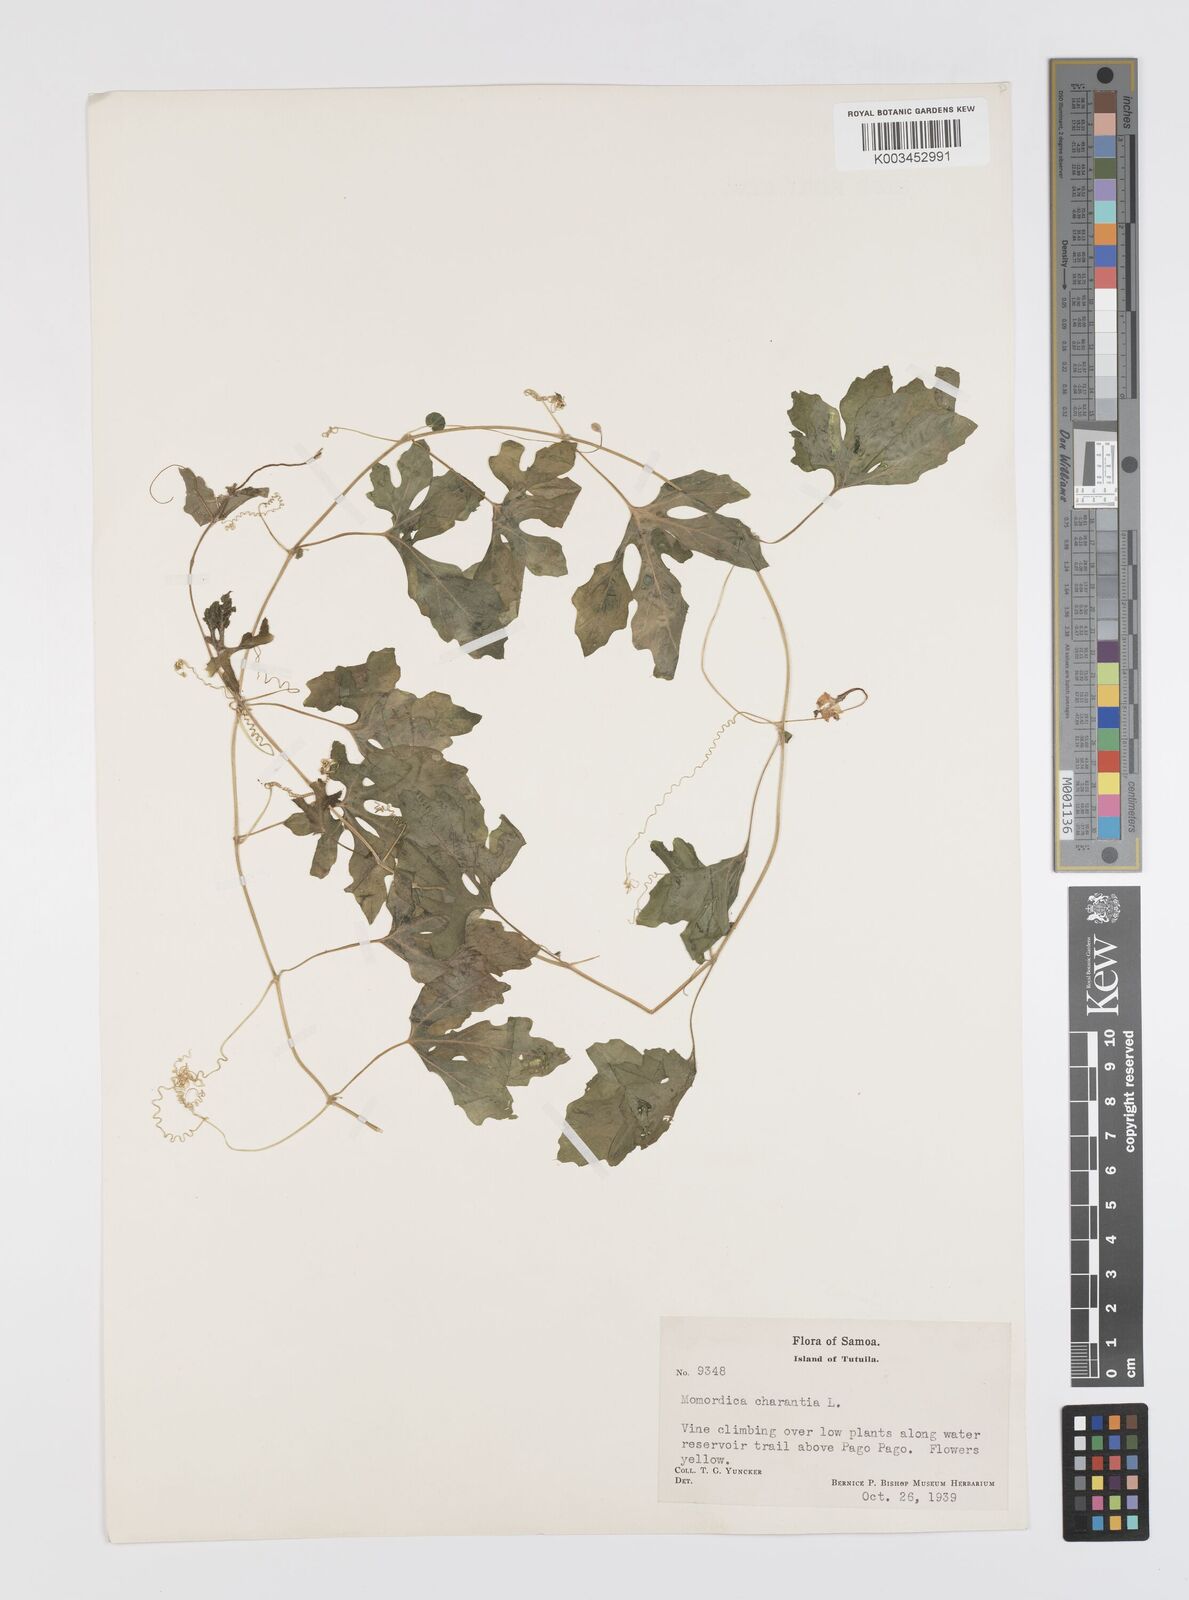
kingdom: Plantae
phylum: Tracheophyta
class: Magnoliopsida
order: Cucurbitales
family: Cucurbitaceae
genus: Momordica
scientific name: Momordica charantia
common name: Balsampear
